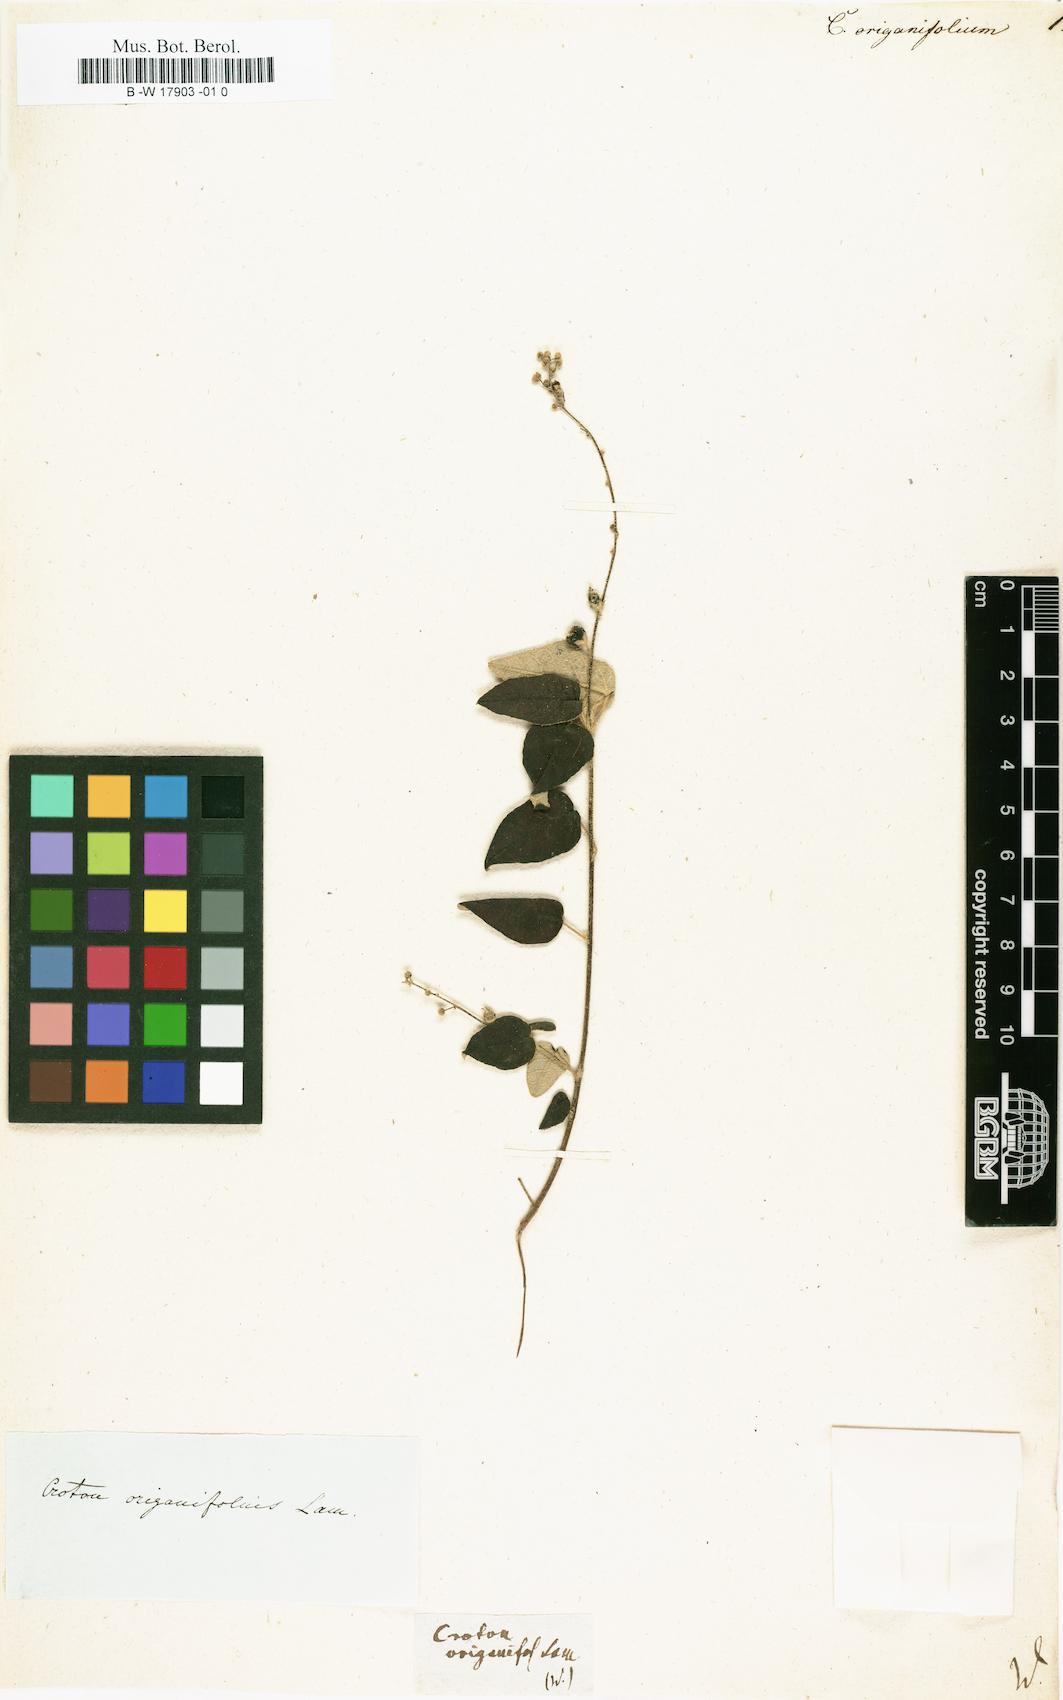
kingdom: Plantae
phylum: Tracheophyta
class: Magnoliopsida
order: Malpighiales
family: Euphorbiaceae
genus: Croton
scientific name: Croton origanifolius
